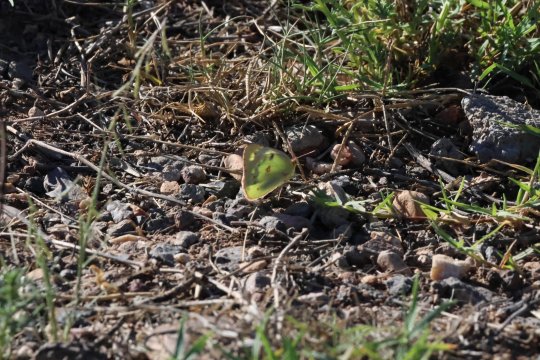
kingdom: Animalia
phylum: Arthropoda
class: Insecta
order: Lepidoptera
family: Pieridae
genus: Colias
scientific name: Colias eurytheme
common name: Orange Sulphur
